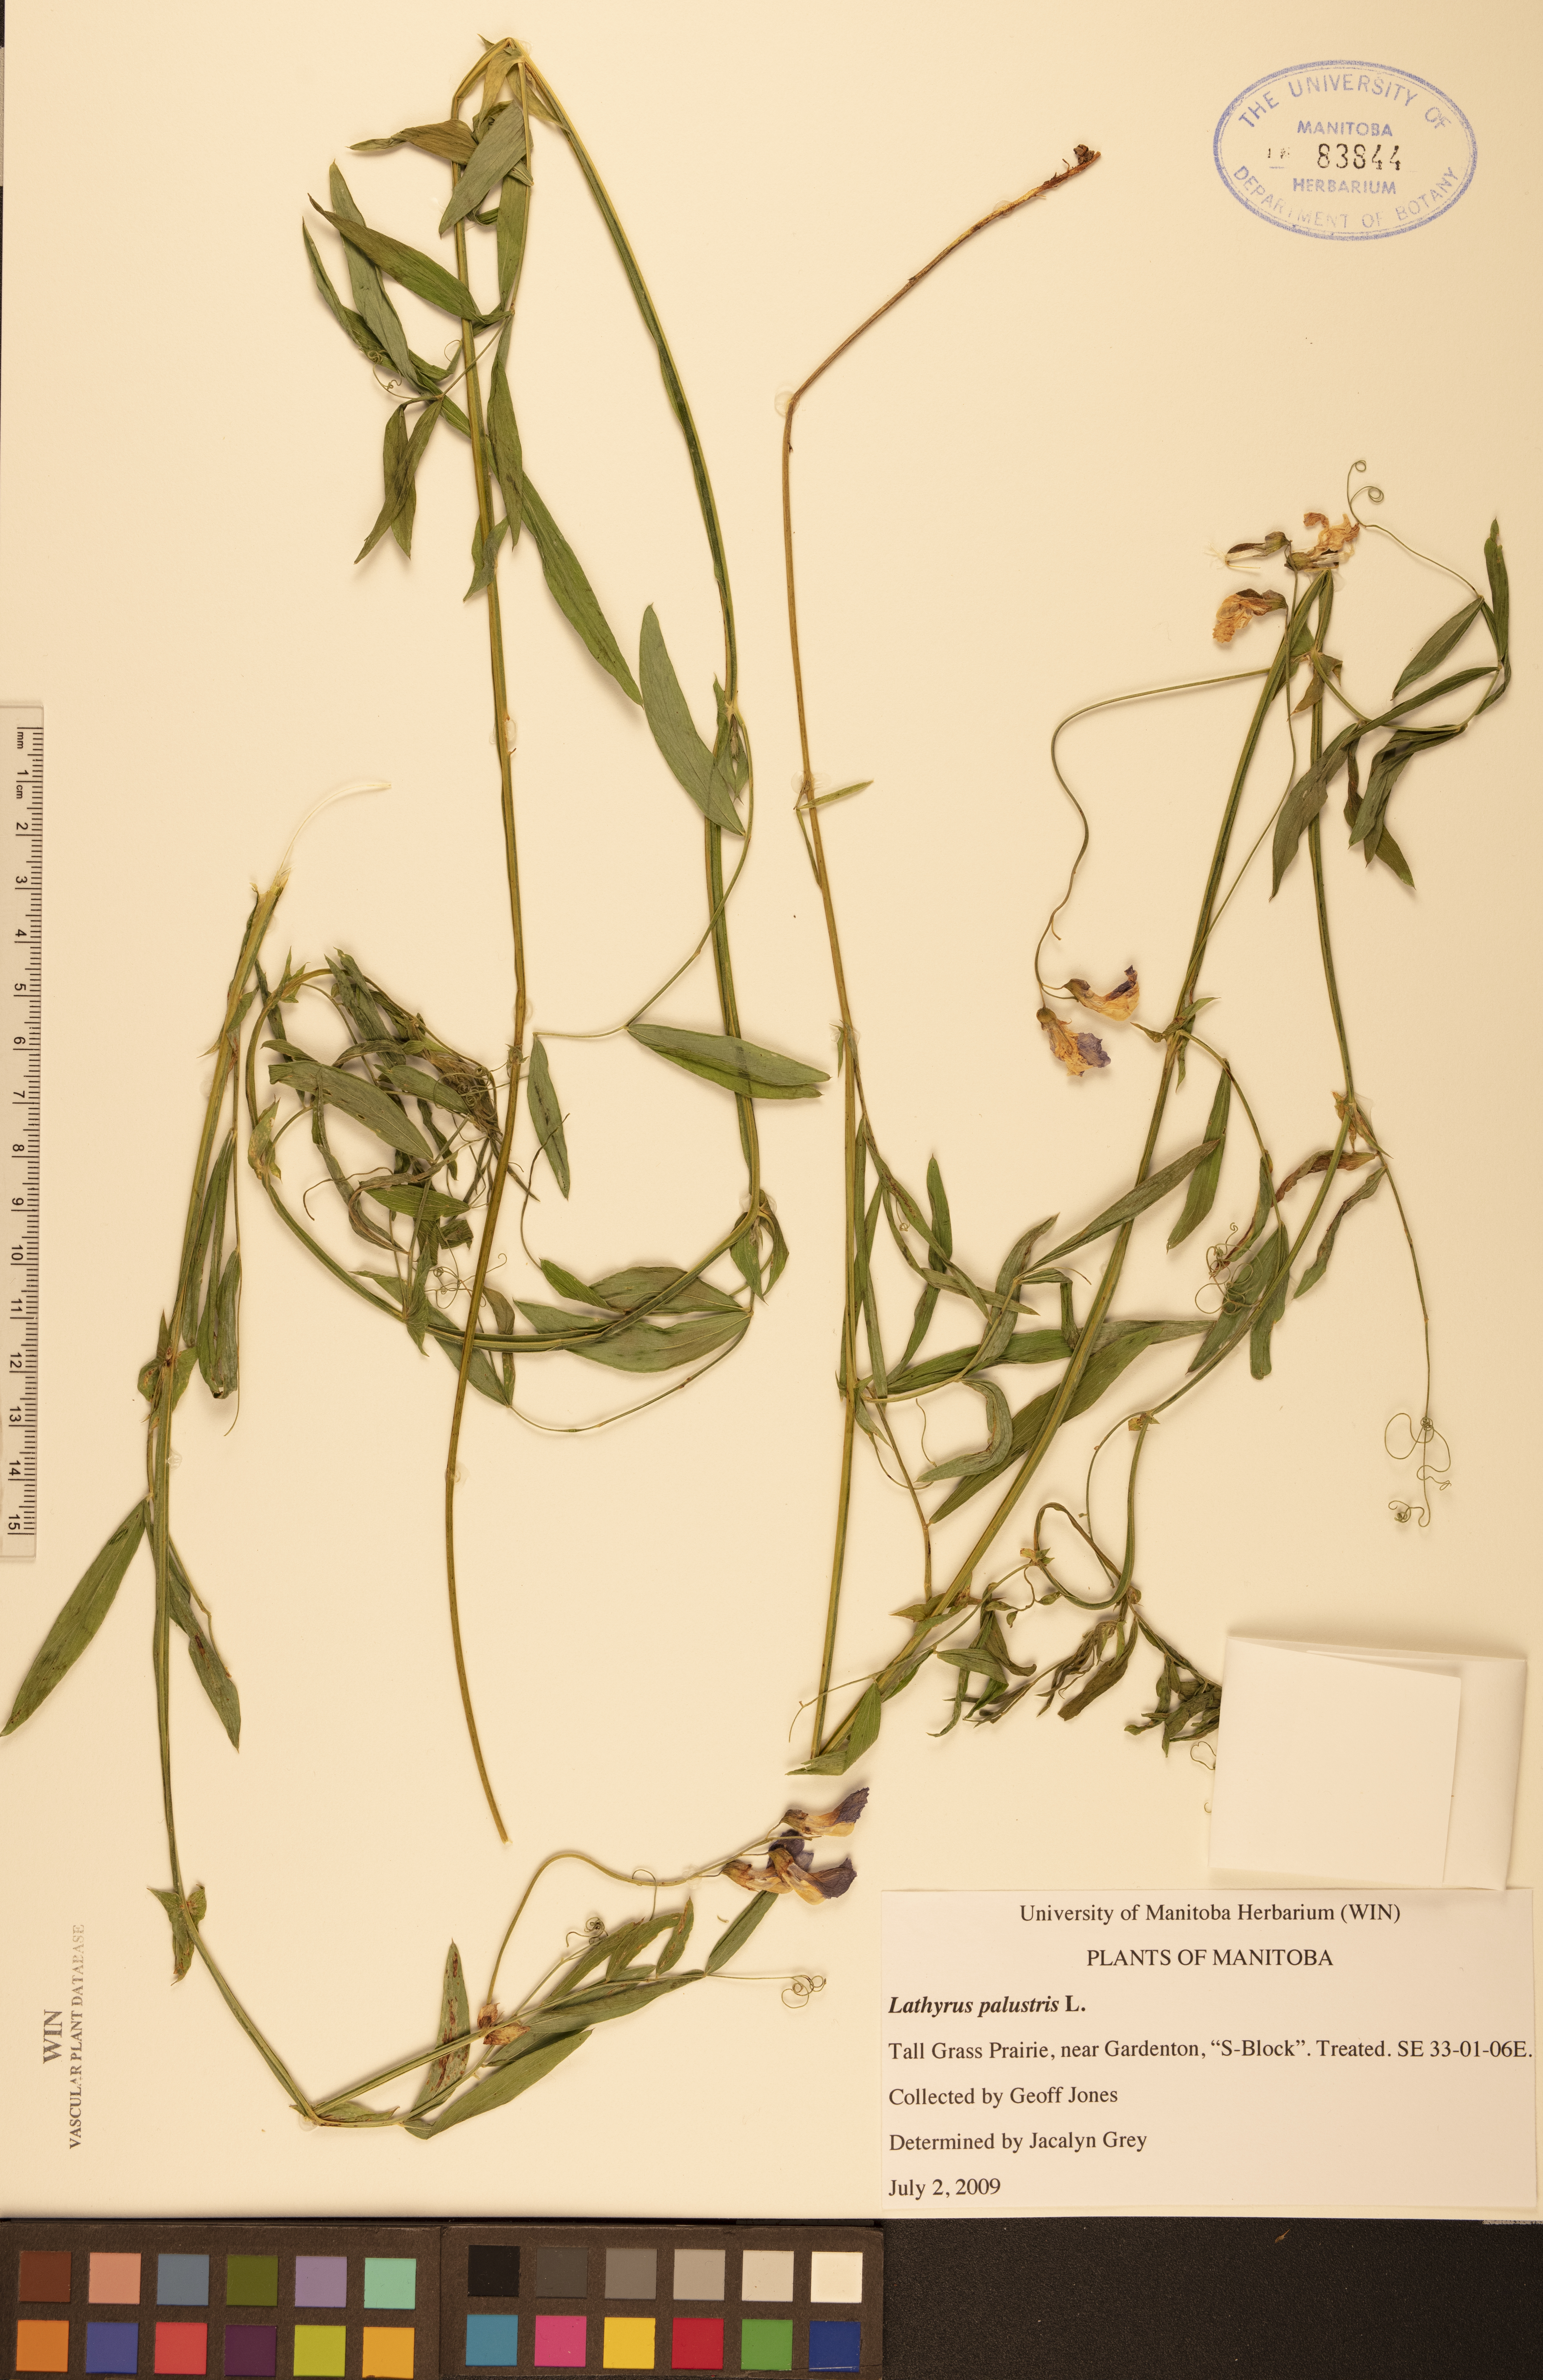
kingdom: Plantae
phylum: Tracheophyta
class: Magnoliopsida
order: Fabales
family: Fabaceae
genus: Lathyrus
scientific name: Lathyrus palustris
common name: Marsh pea
